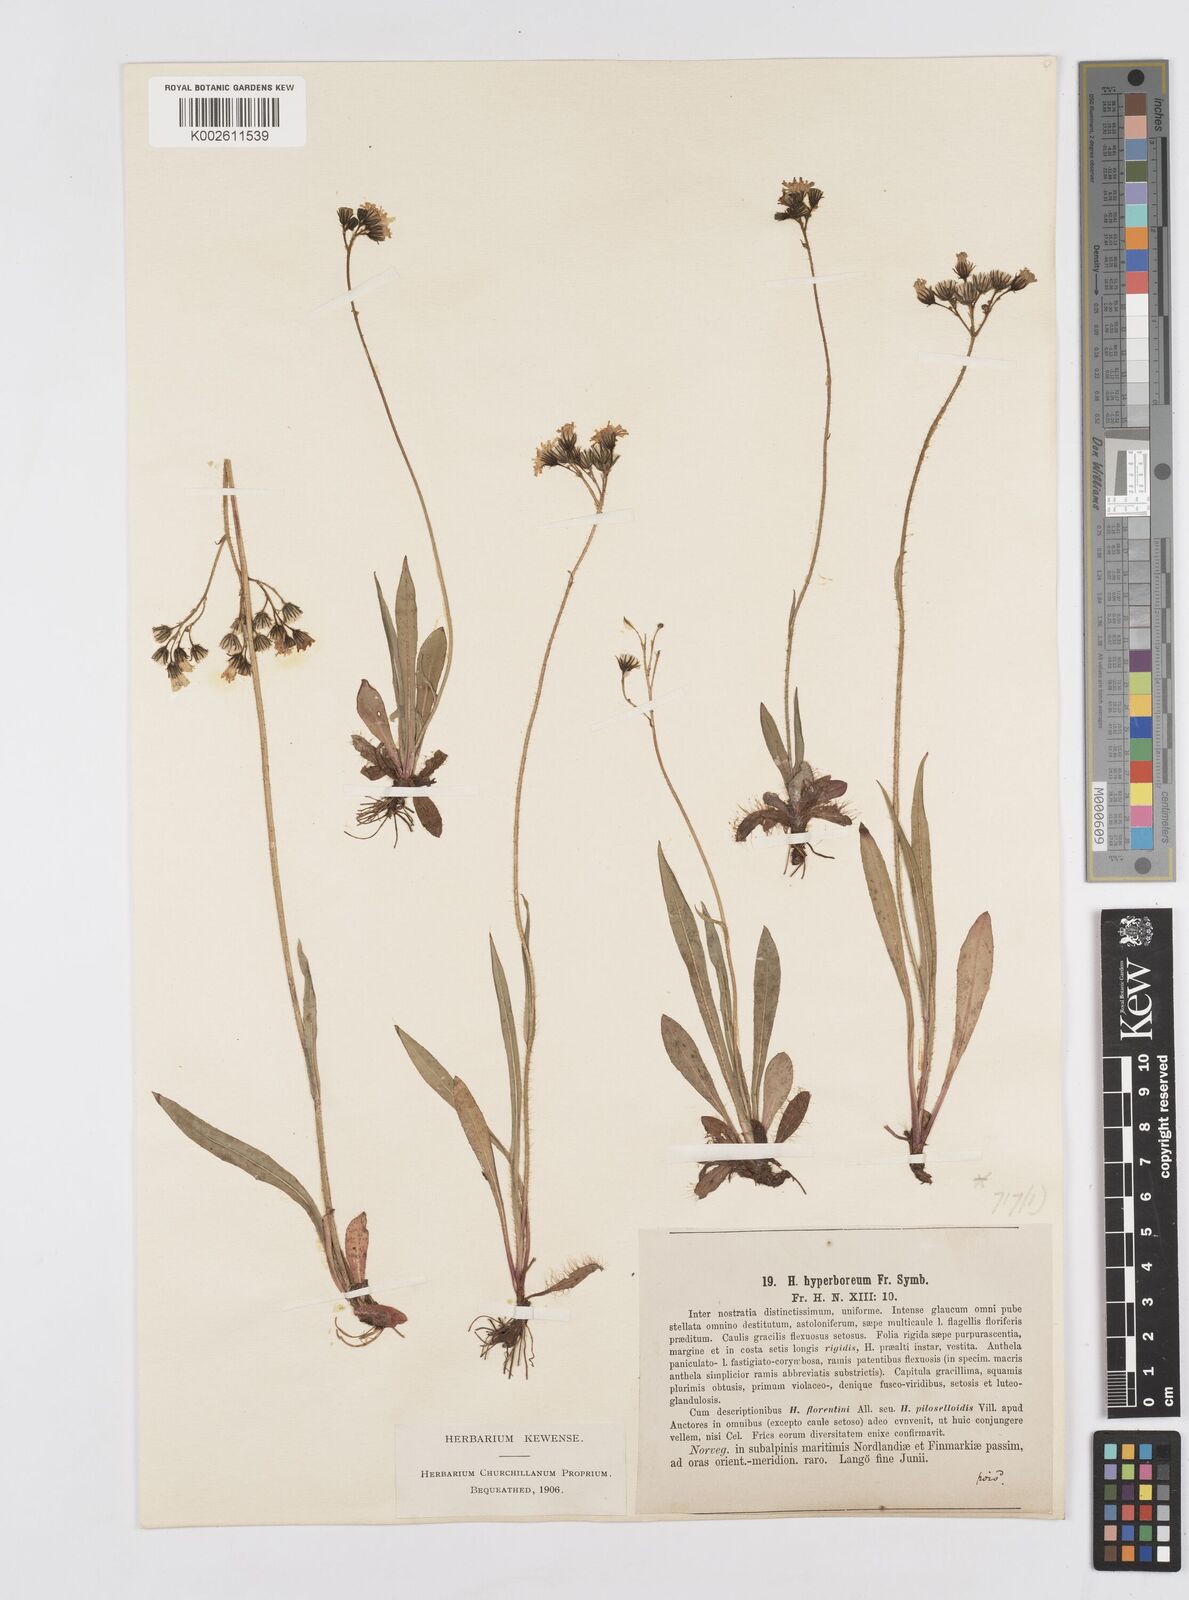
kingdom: Plantae
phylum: Tracheophyta
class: Magnoliopsida
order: Asterales
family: Asteraceae
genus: Pilosella
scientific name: Pilosella hyperborea
